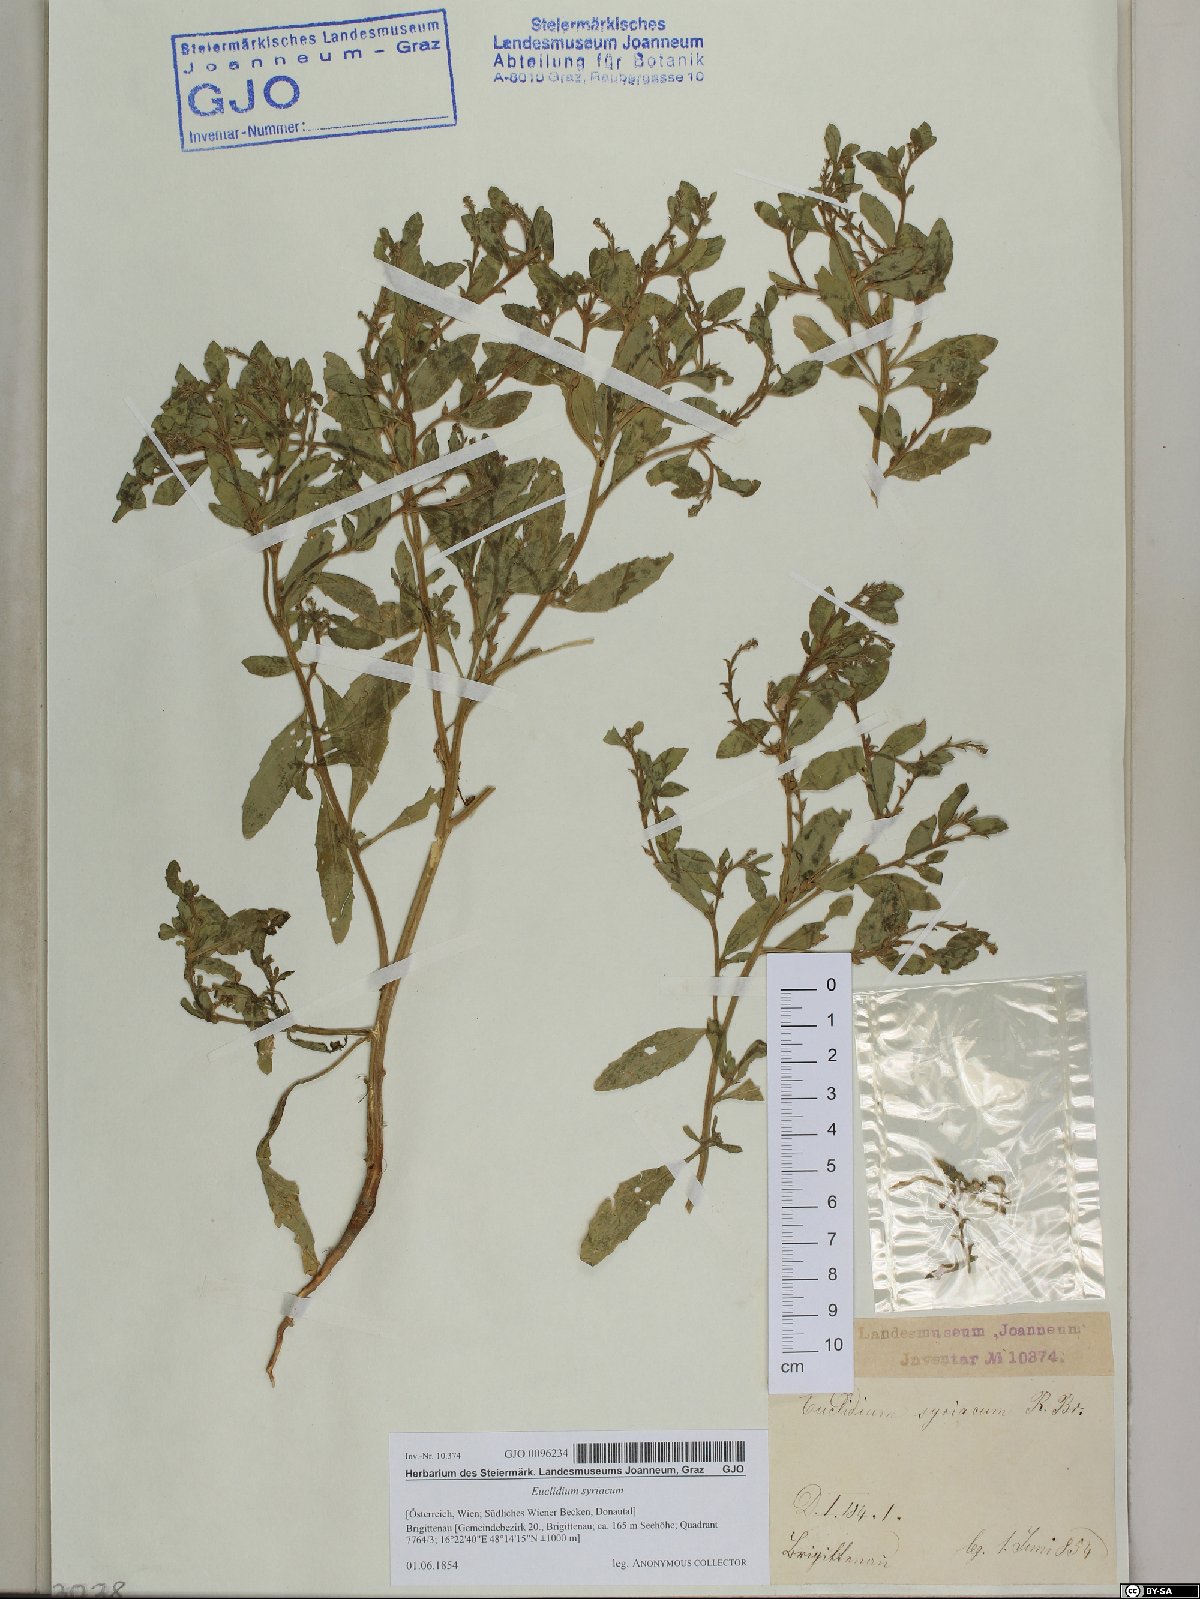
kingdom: Plantae
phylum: Tracheophyta
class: Magnoliopsida
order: Brassicales
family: Brassicaceae
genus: Euclidium
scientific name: Euclidium syriacum
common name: Syrian mustard
